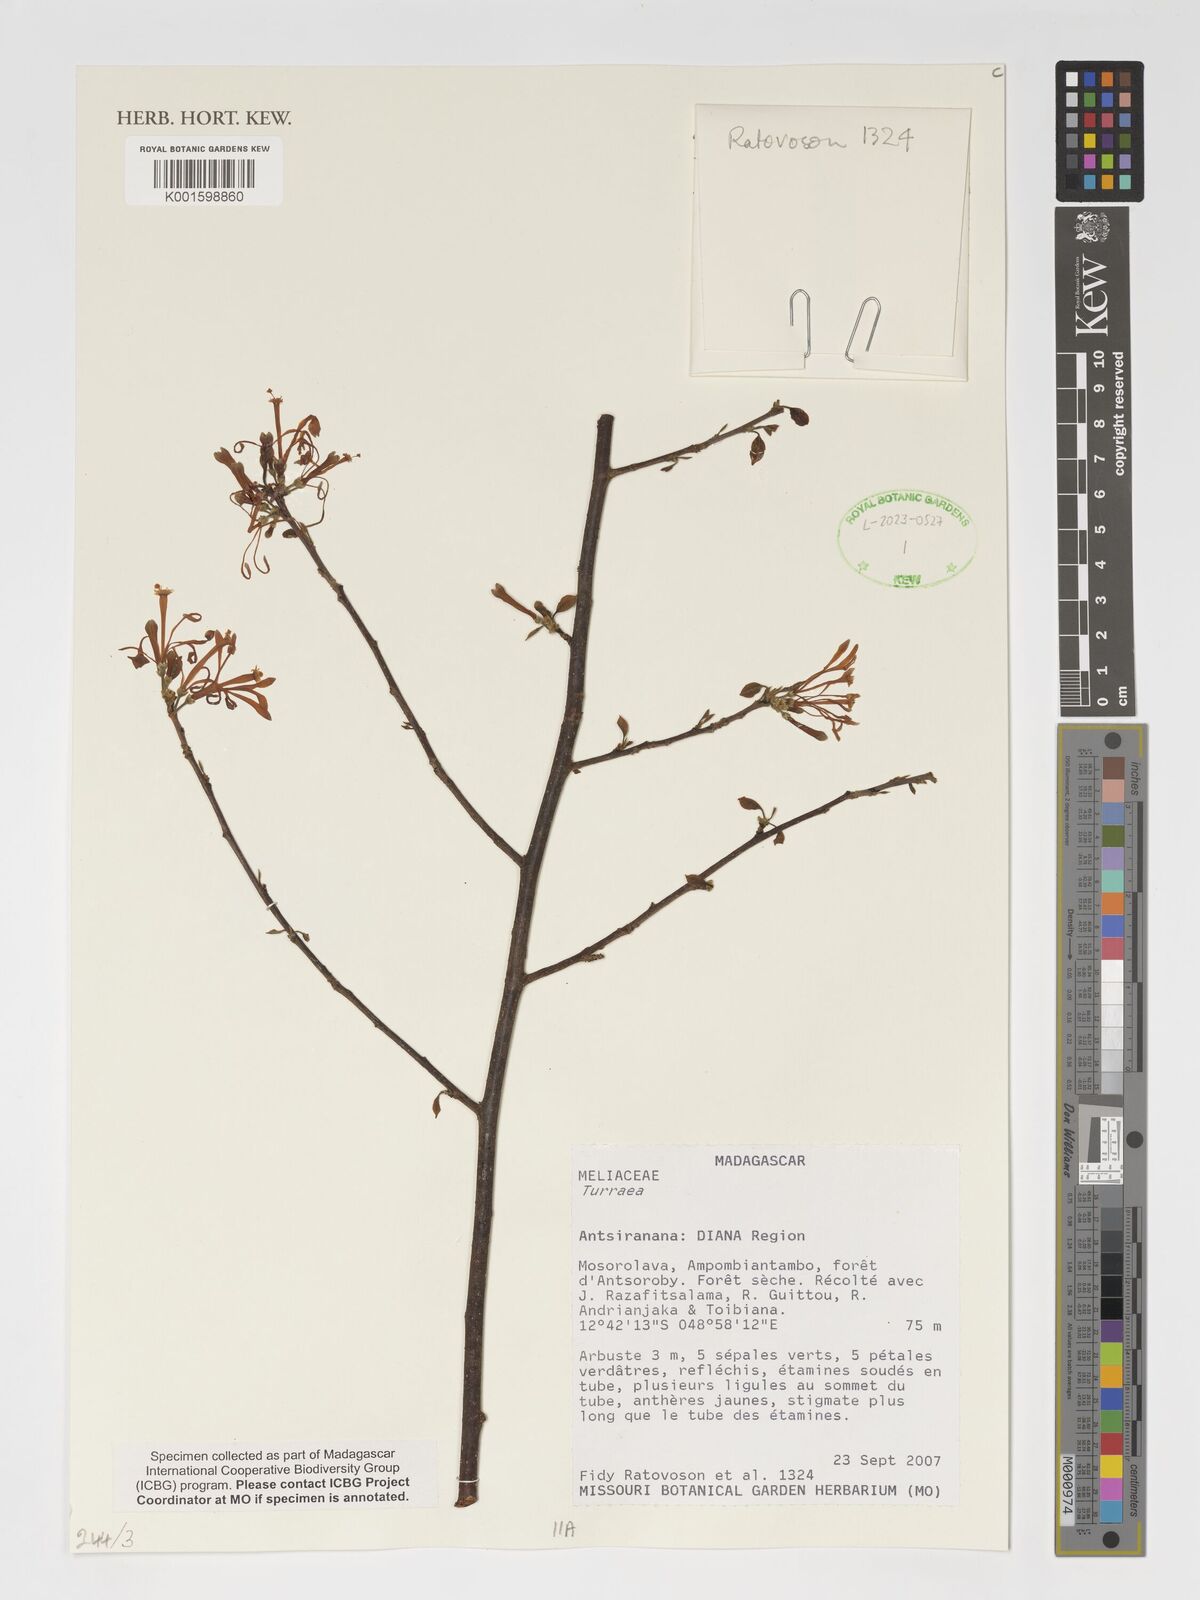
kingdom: Plantae
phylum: Tracheophyta
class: Magnoliopsida
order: Sapindales
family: Meliaceae
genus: Turraea
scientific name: Turraea
